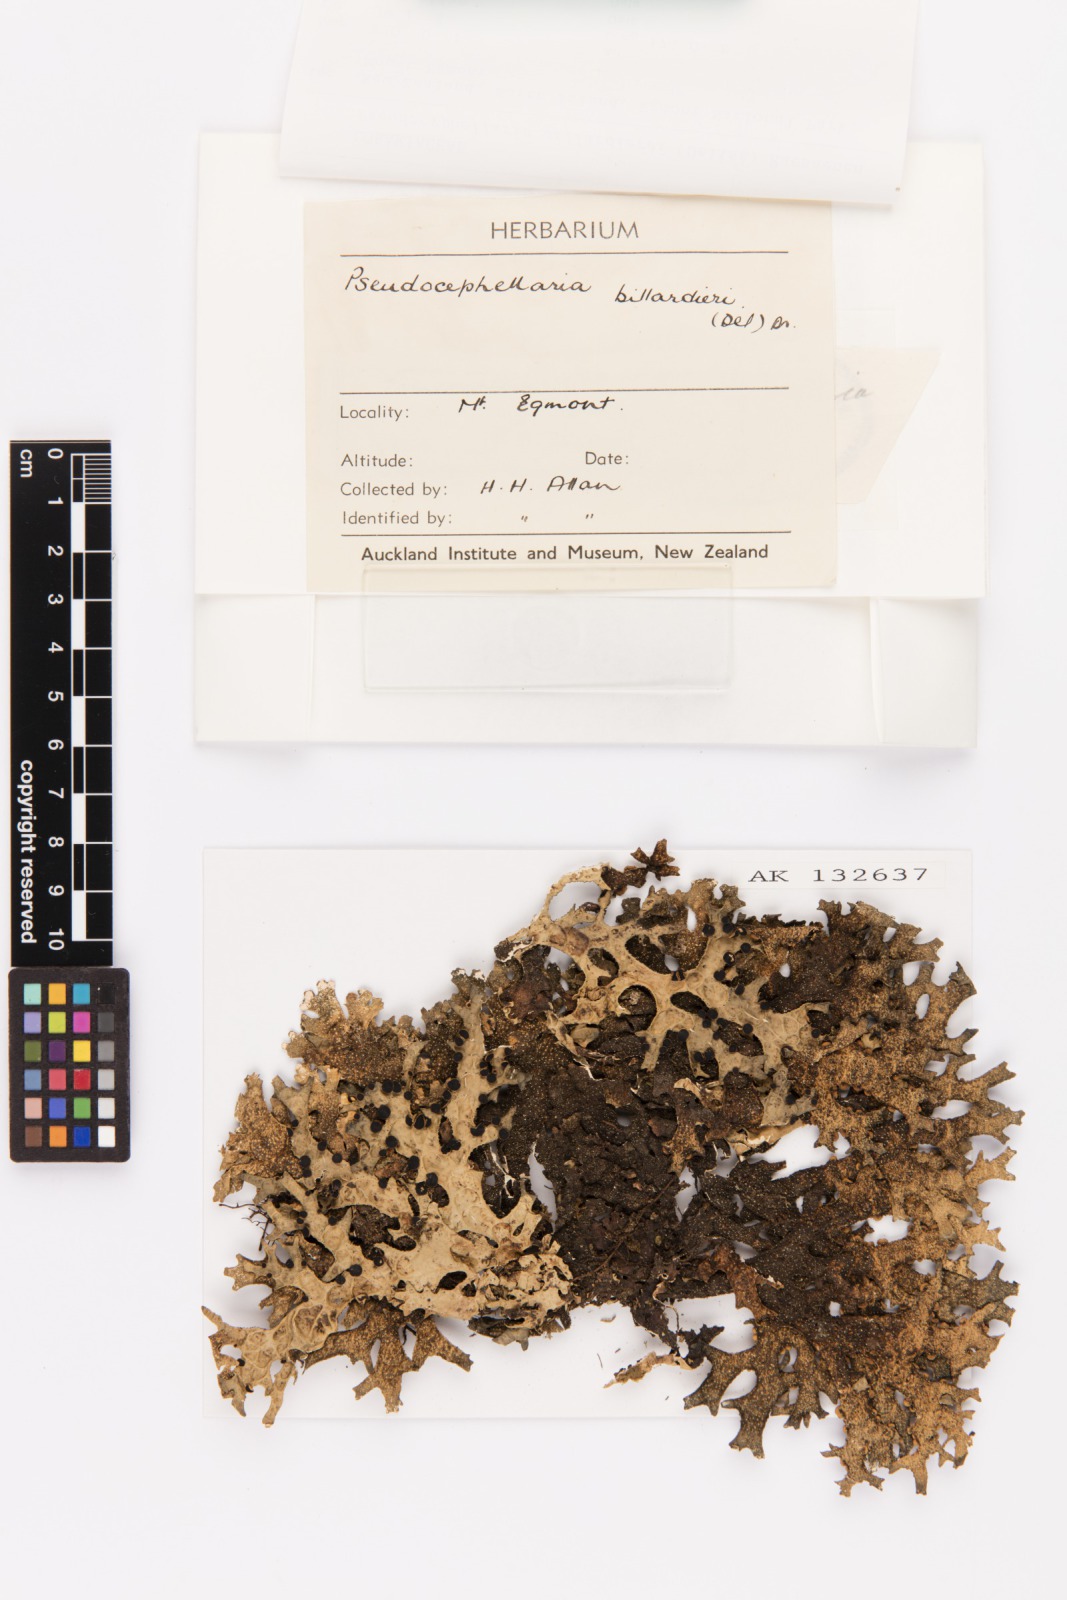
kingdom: Fungi
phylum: Ascomycota
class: Lecanoromycetes
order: Peltigerales
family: Lobariaceae
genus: Pseudocyphellaria
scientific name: Pseudocyphellaria billardierei
